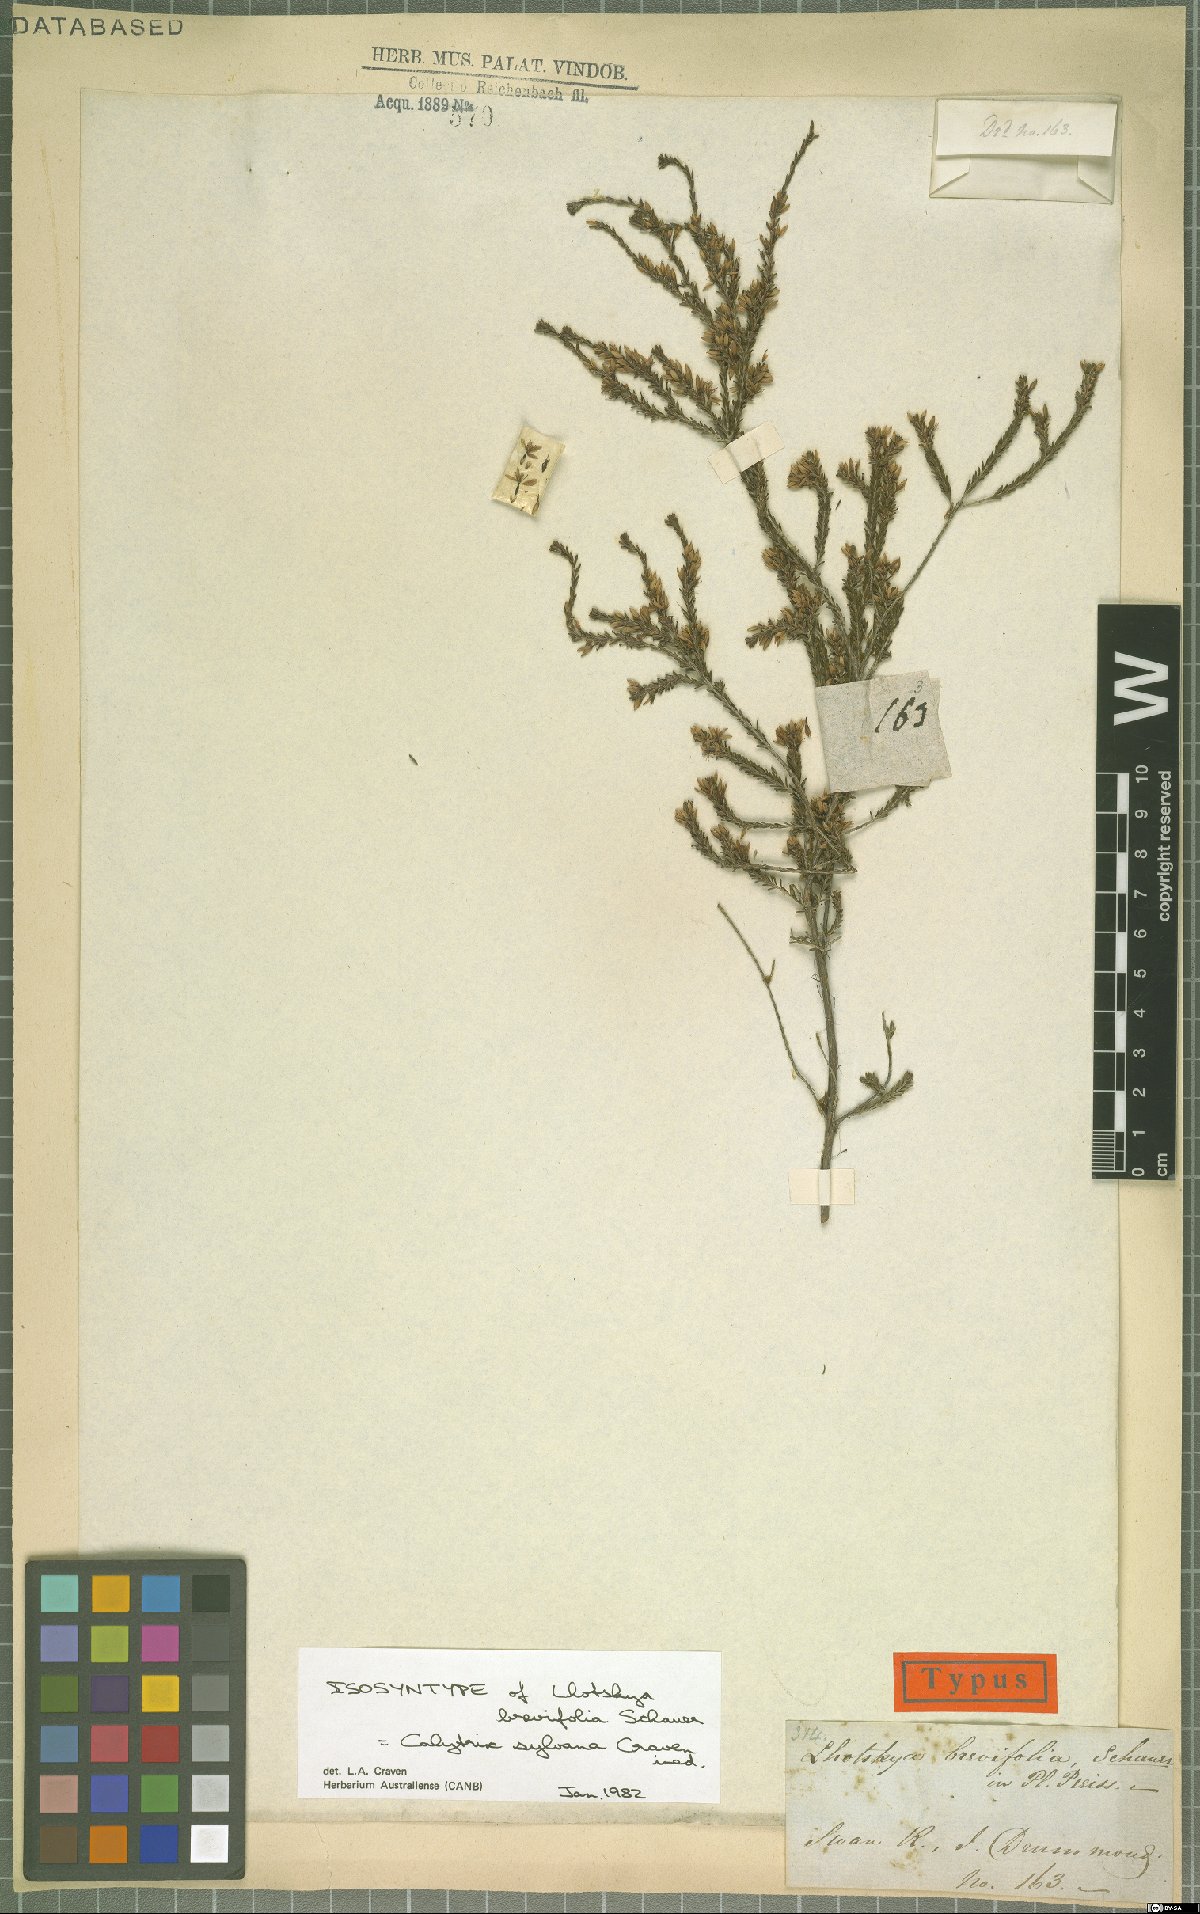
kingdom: Plantae
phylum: Tracheophyta
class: Magnoliopsida
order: Myrtales
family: Myrtaceae
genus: Calytrix
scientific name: Calytrix sylvana
